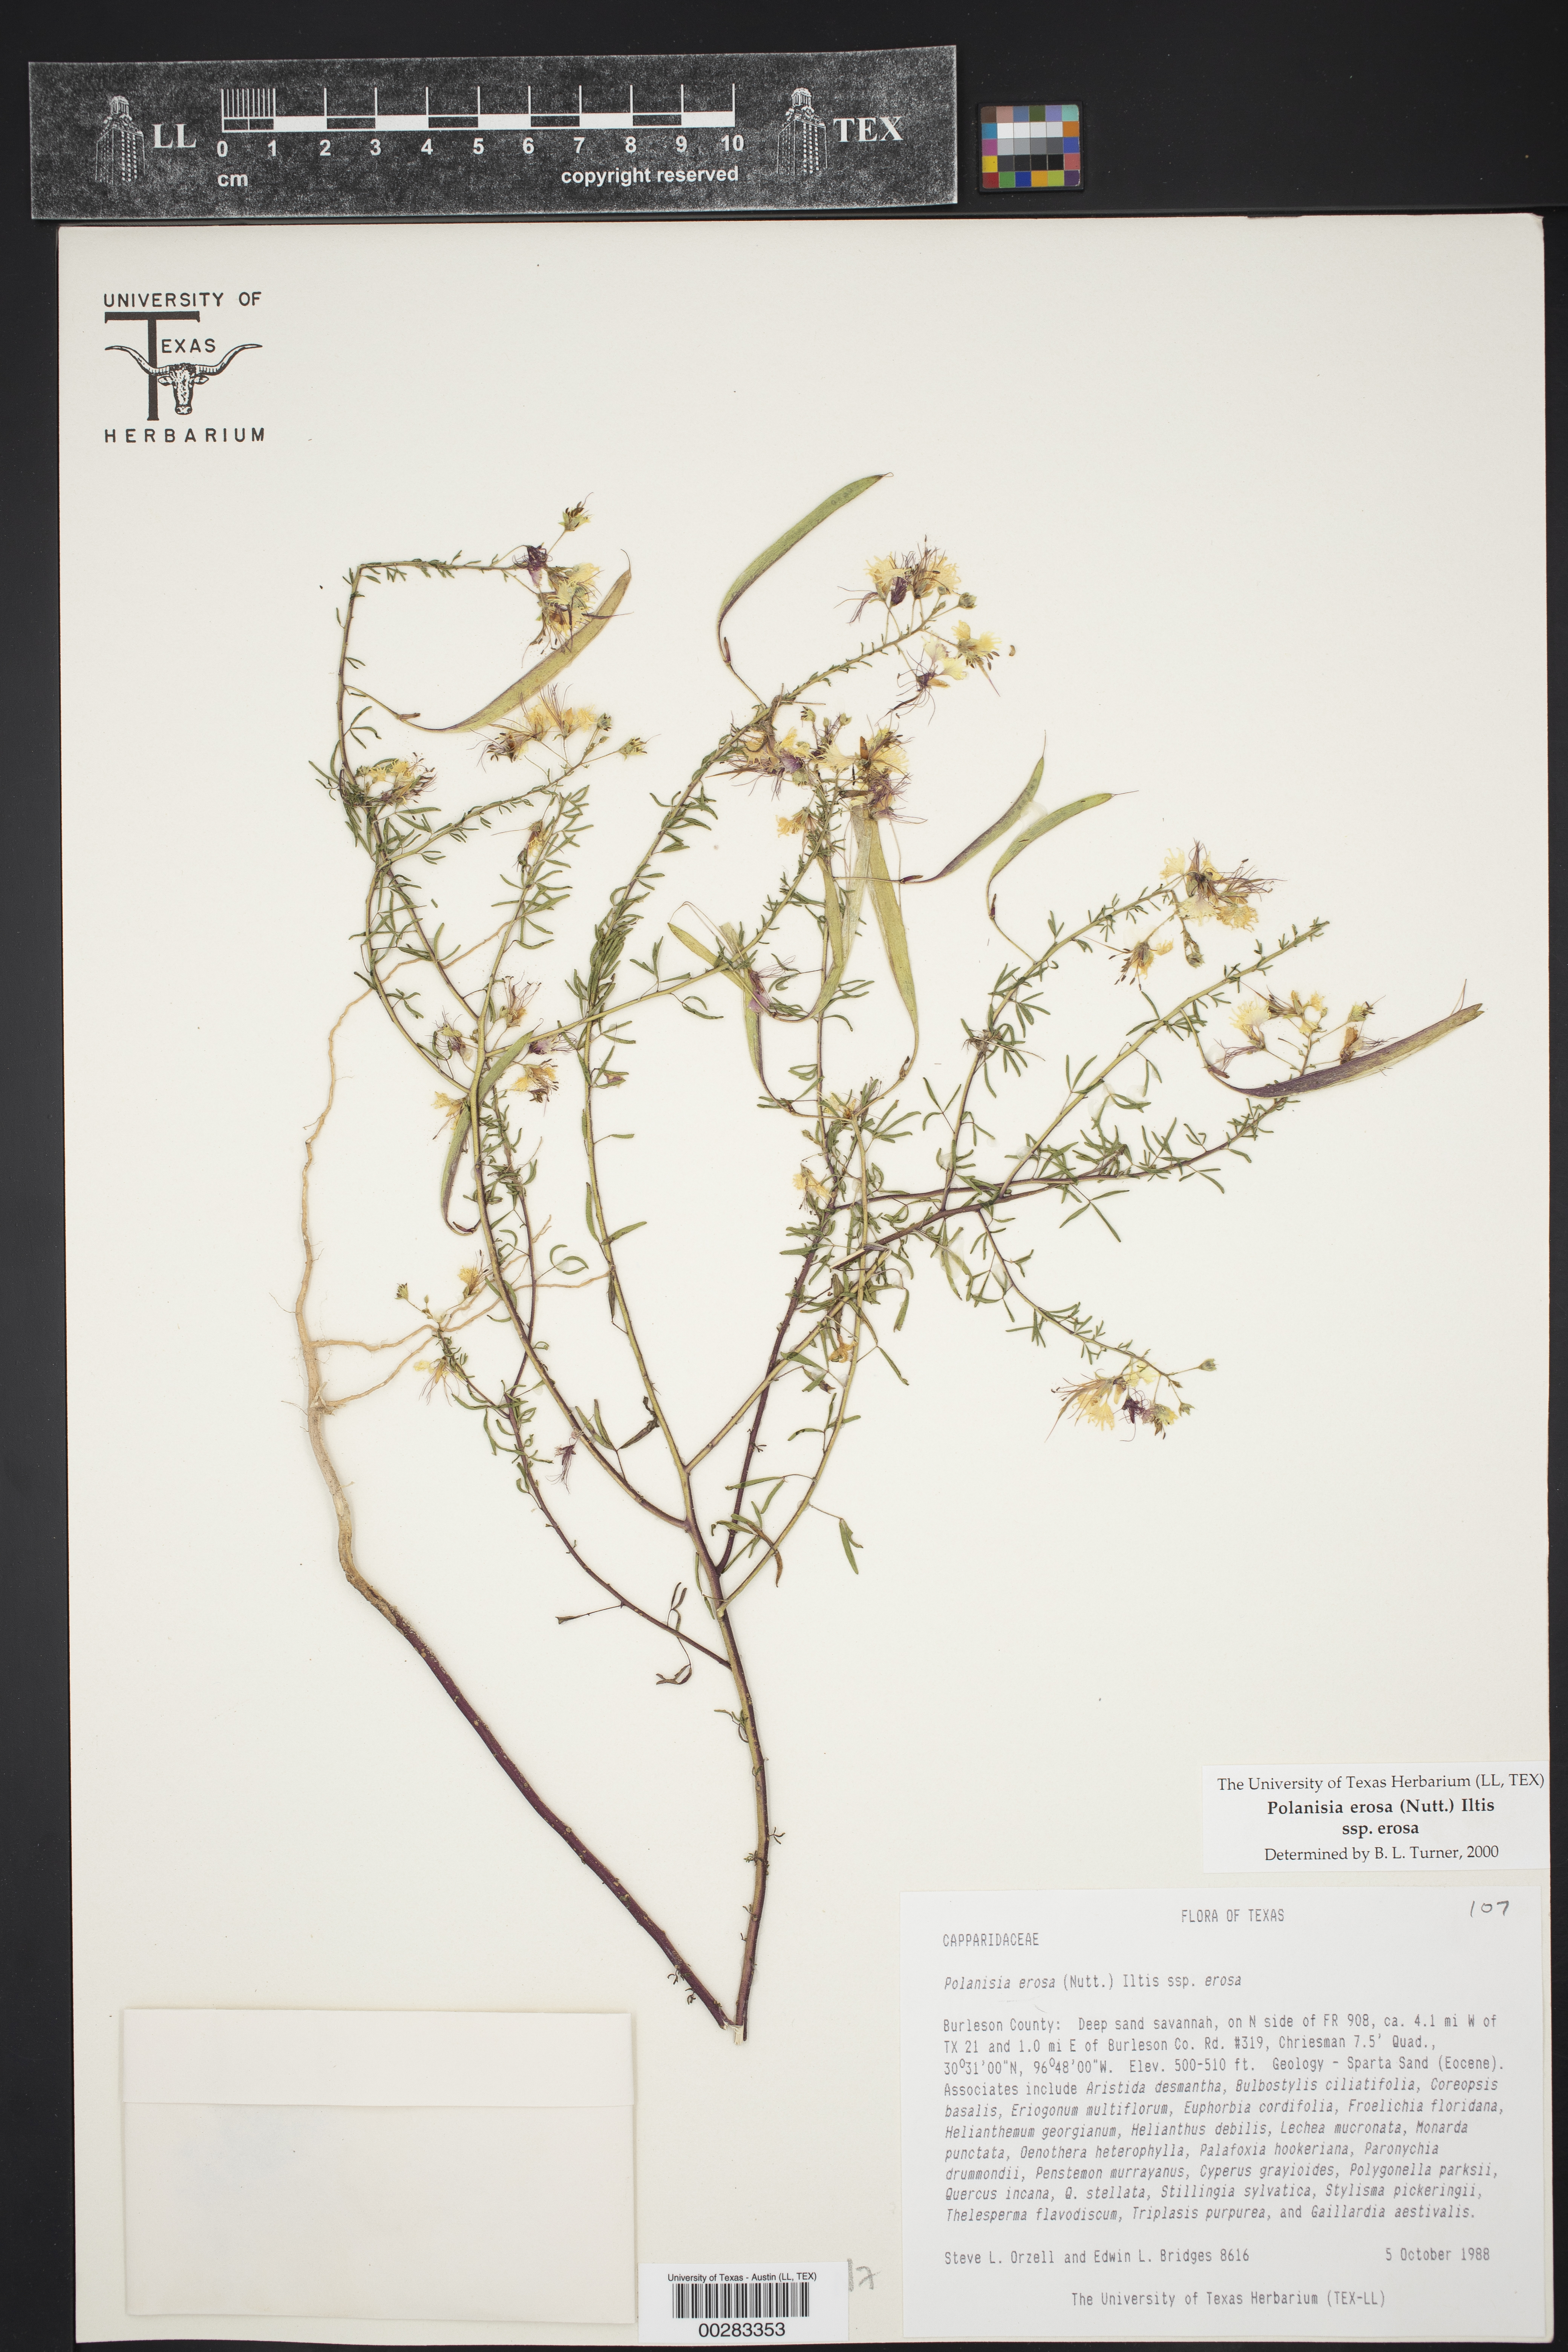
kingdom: Plantae
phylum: Tracheophyta
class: Magnoliopsida
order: Brassicales
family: Cleomaceae
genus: Polanisia
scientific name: Polanisia erosa
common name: Large clammyweed
